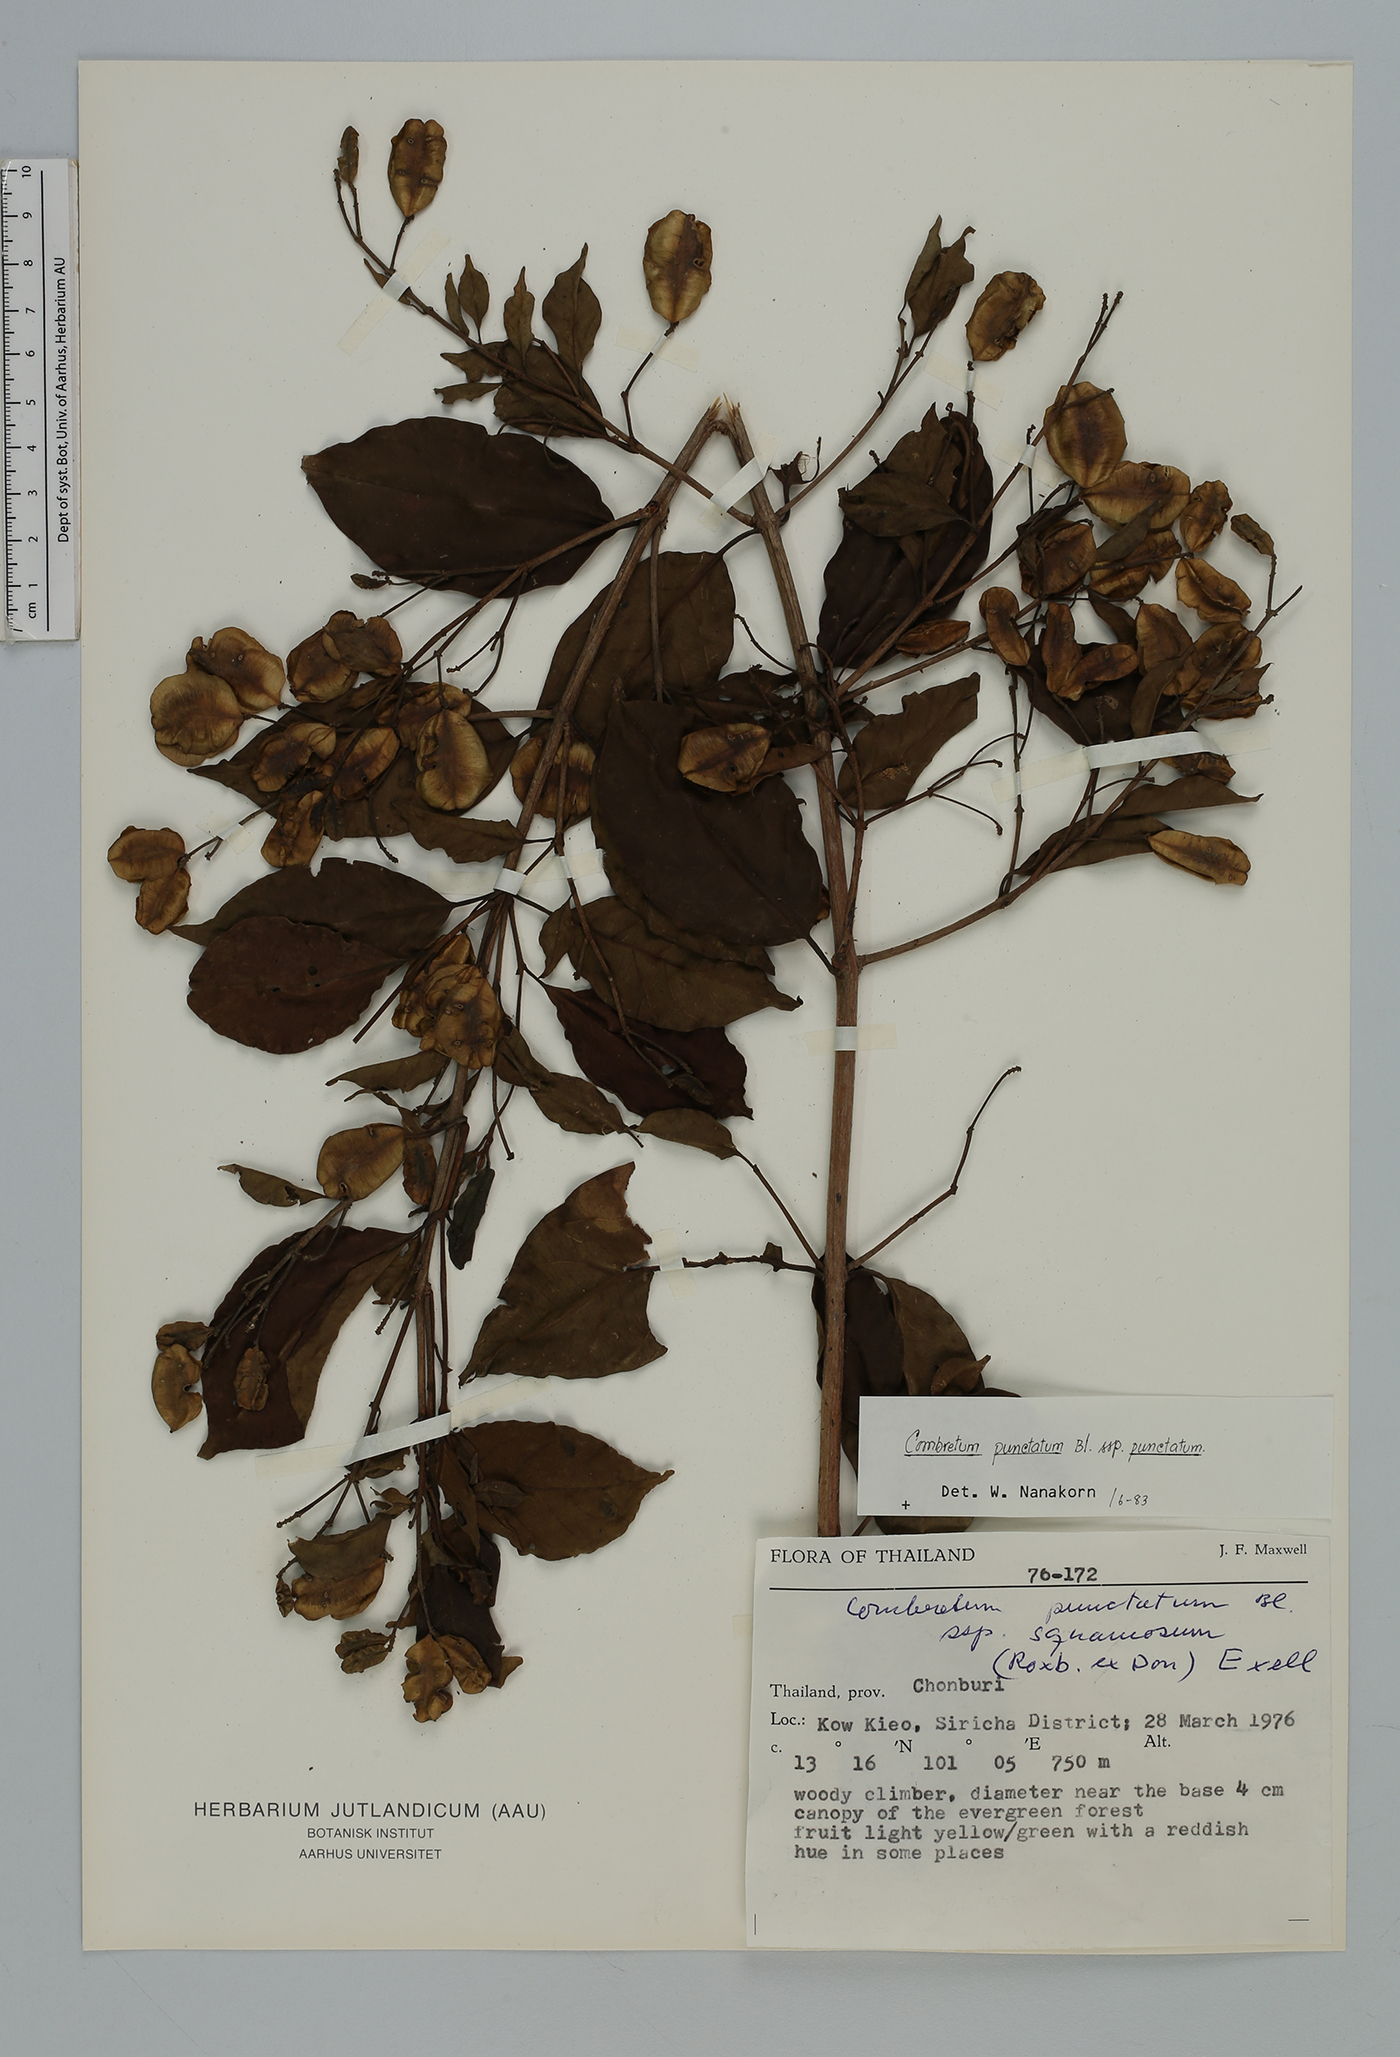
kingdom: Plantae
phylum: Tracheophyta
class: Magnoliopsida
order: Myrtales
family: Combretaceae
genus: Combretum
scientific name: Combretum punctatum
